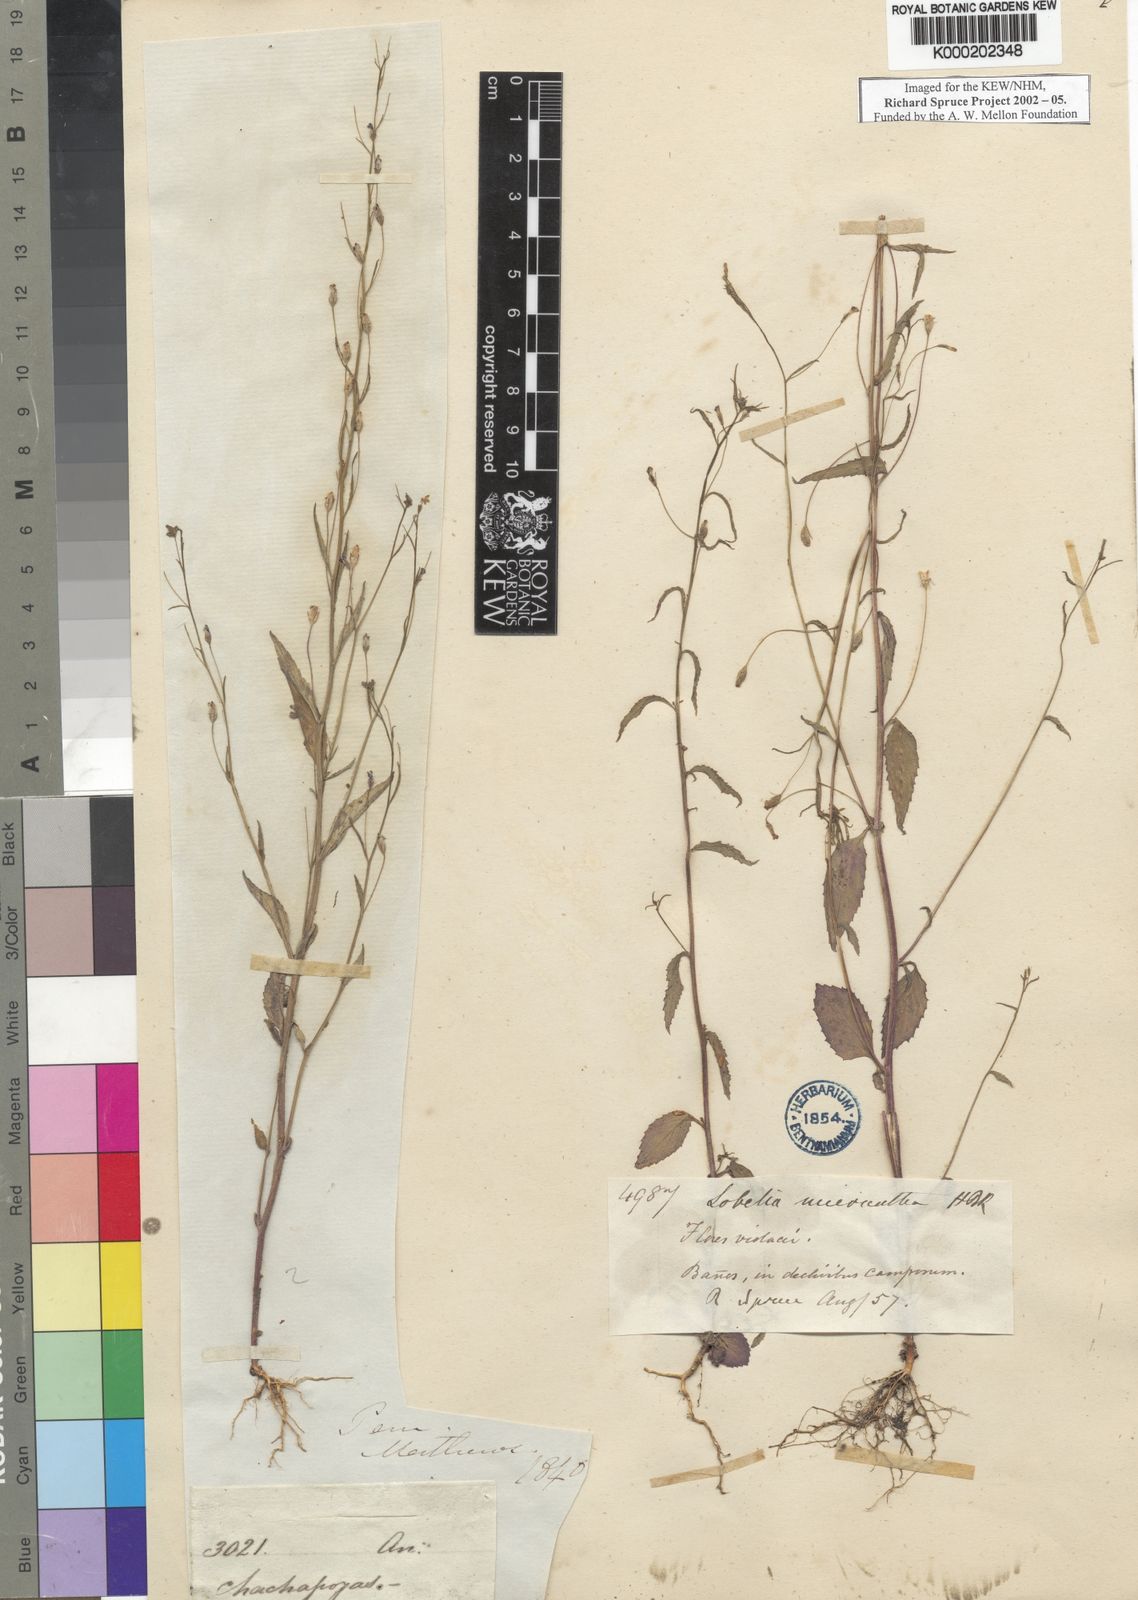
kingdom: Plantae
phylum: Tracheophyta
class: Magnoliopsida
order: Asterales
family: Campanulaceae
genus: Diastatea
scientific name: Diastatea micrantha
